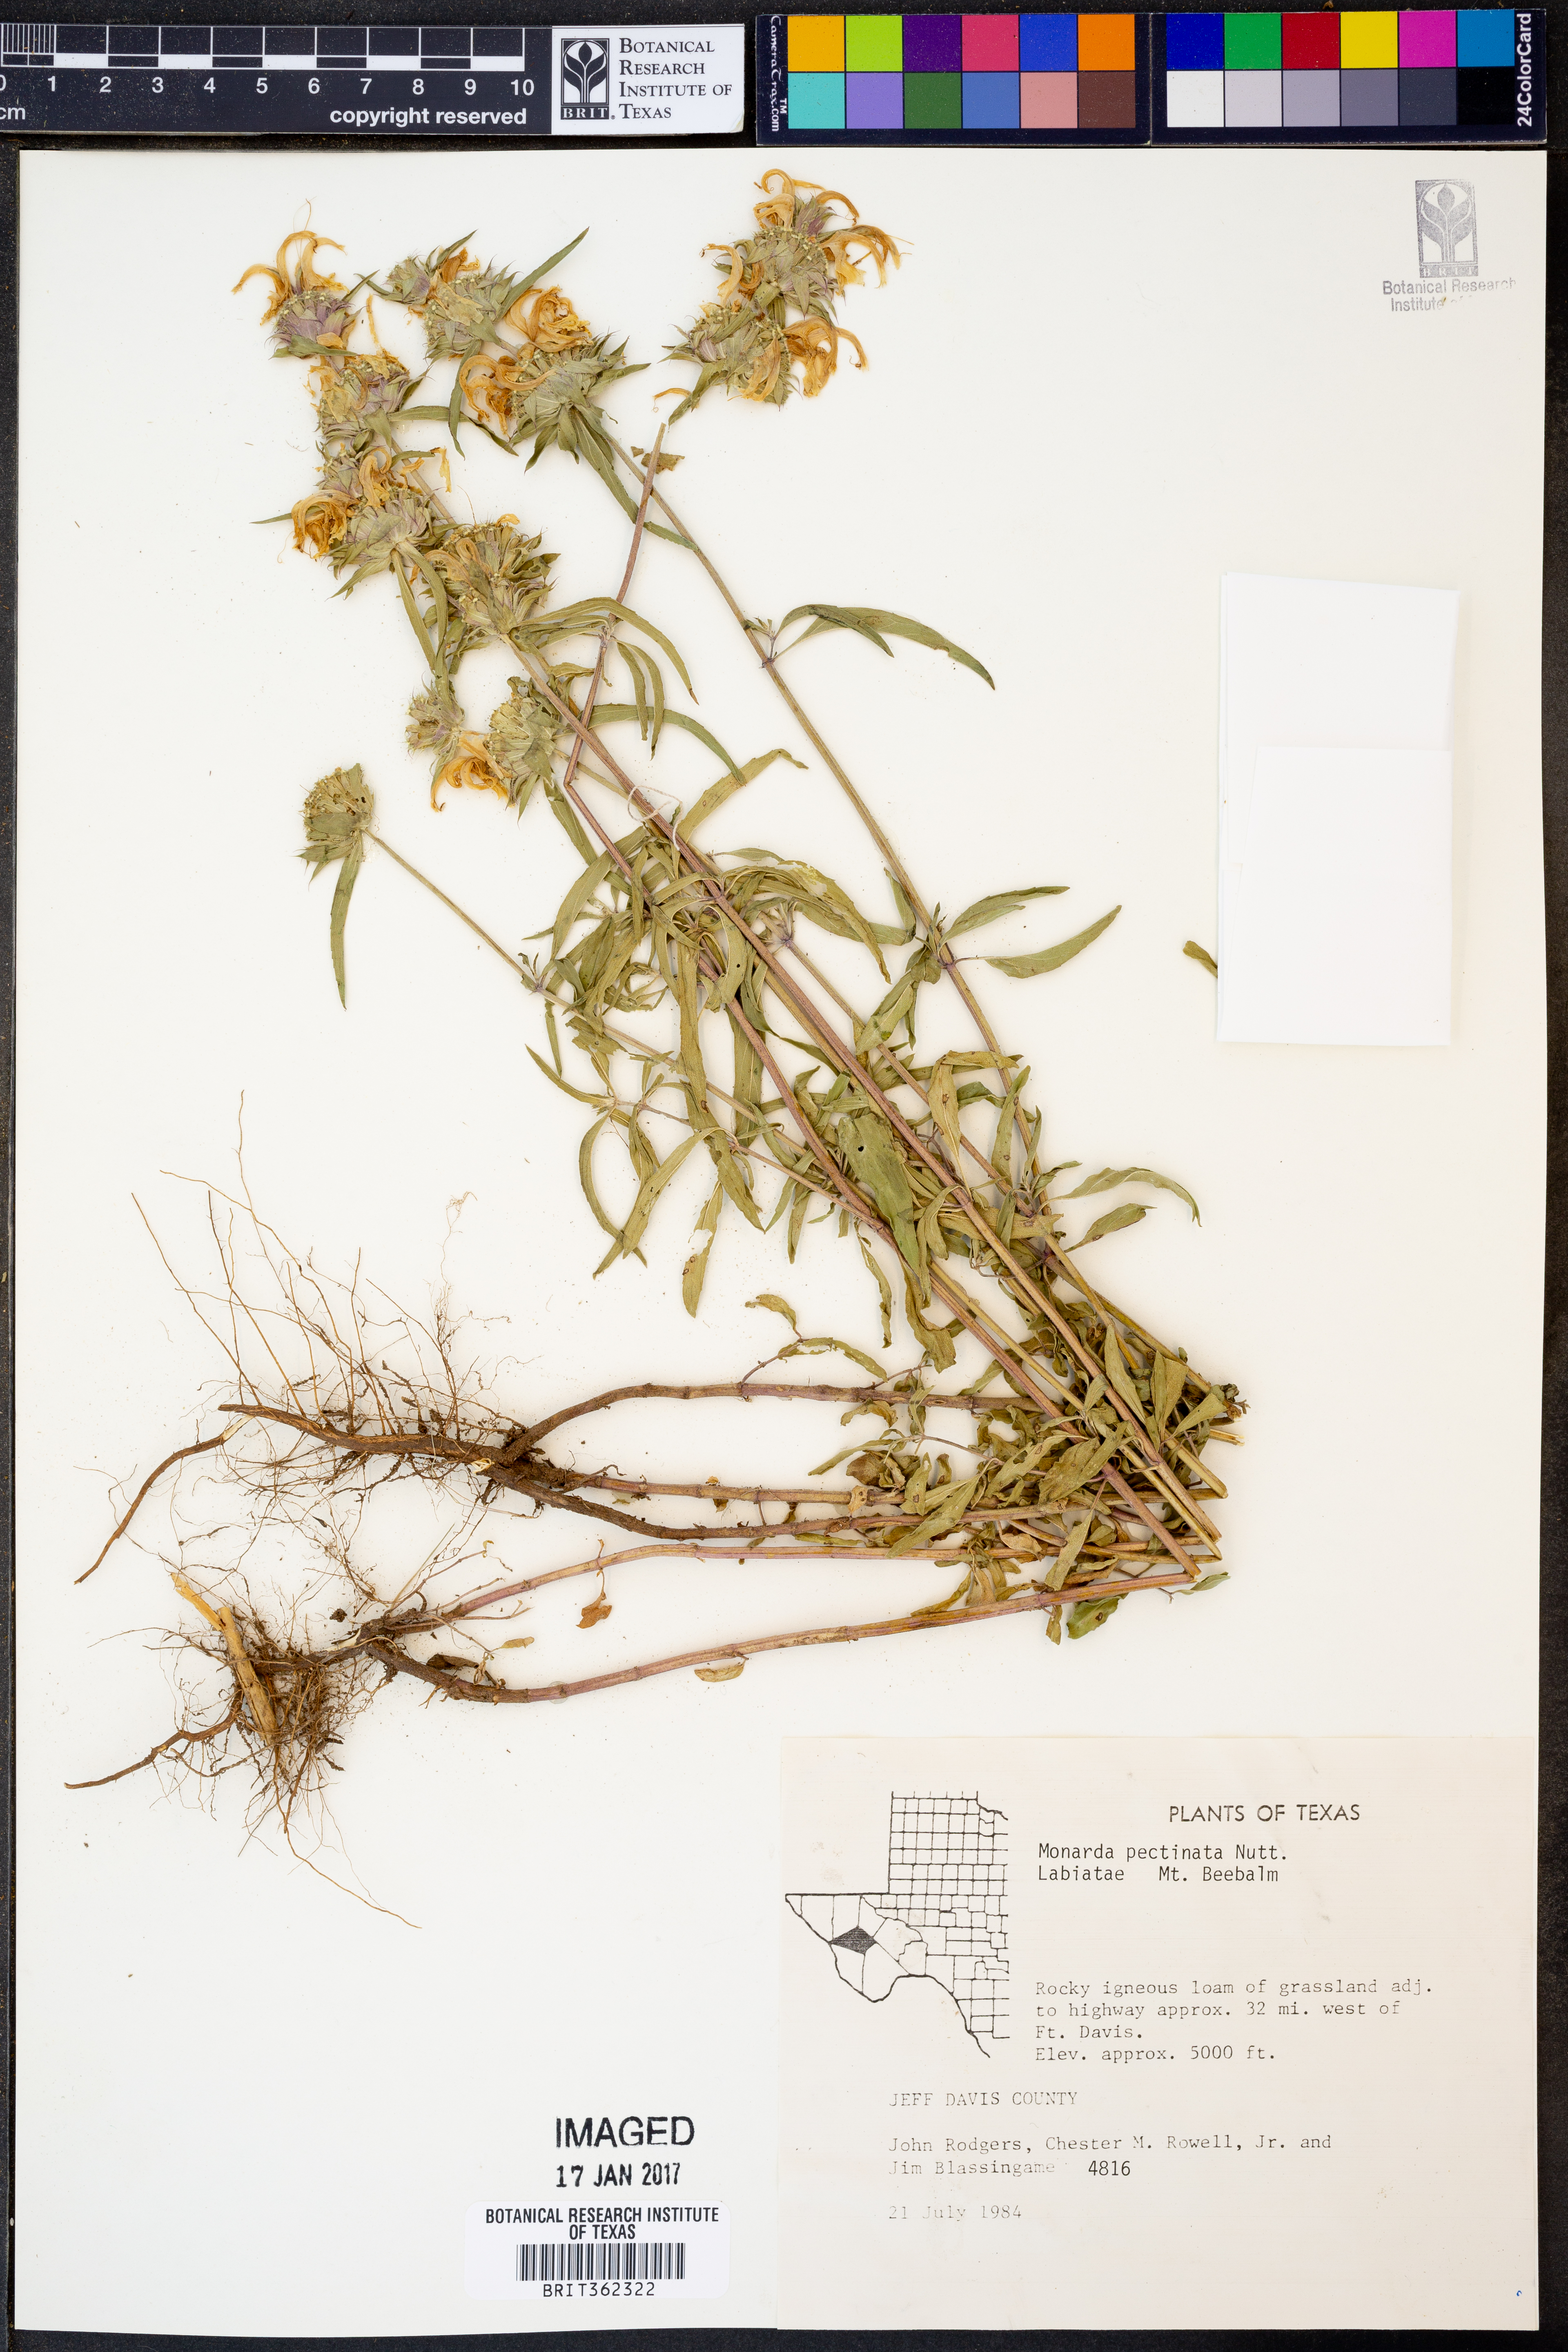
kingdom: Plantae
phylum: Tracheophyta
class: Magnoliopsida
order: Lamiales
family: Lamiaceae
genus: Monarda
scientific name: Monarda pectinata
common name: Plains beebalm
